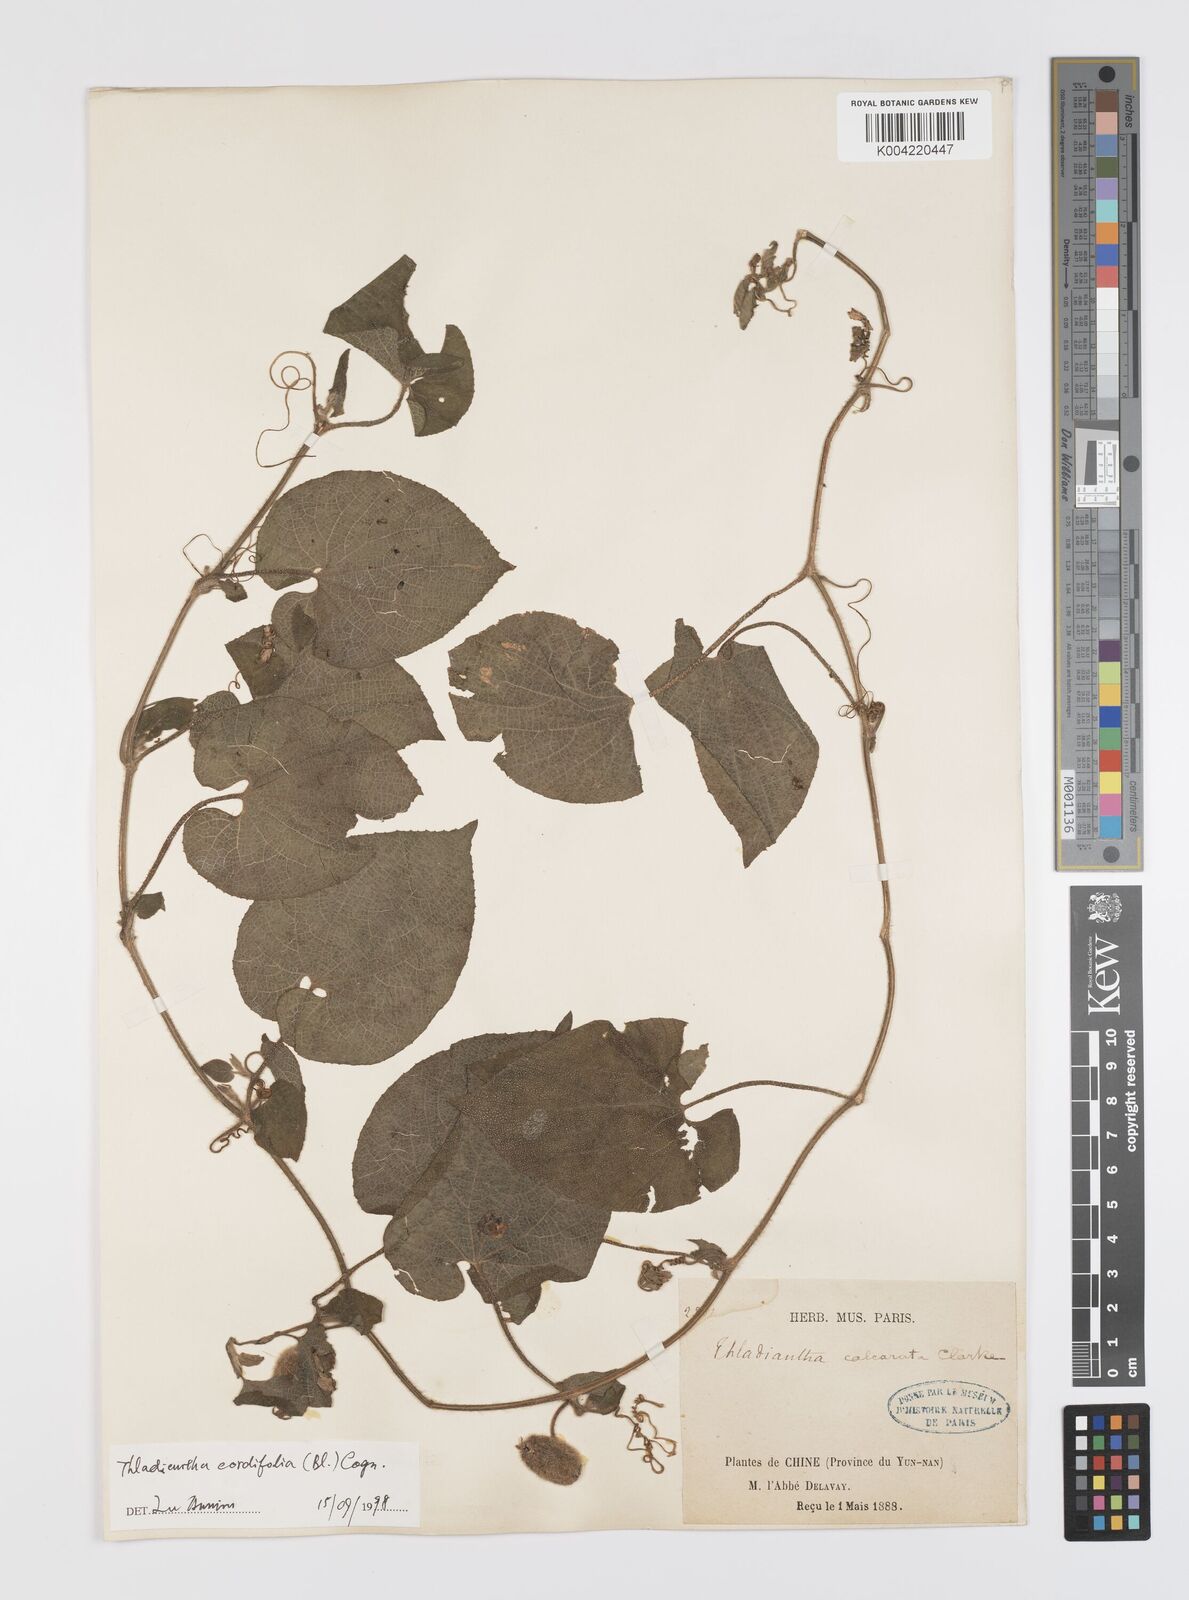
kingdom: Plantae
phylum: Tracheophyta
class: Magnoliopsida
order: Cucurbitales
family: Cucurbitaceae
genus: Thladiantha
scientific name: Thladiantha cordifolia
